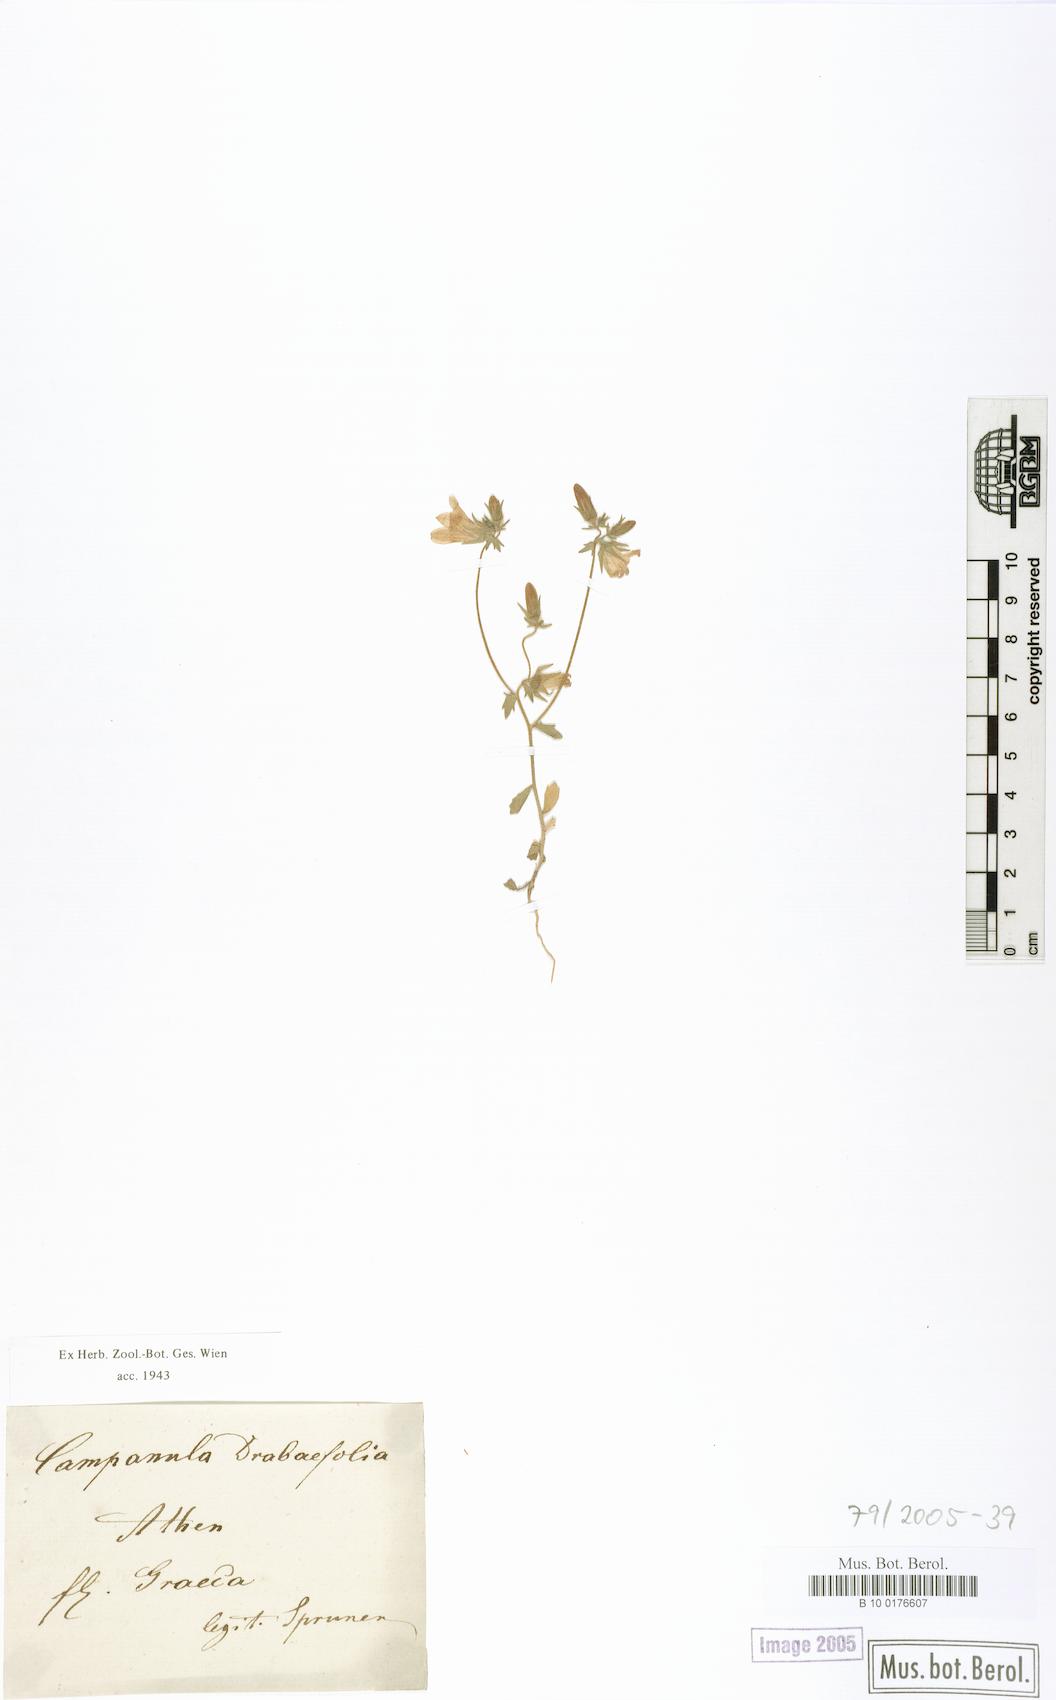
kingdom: Plantae
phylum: Tracheophyta
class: Magnoliopsida
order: Asterales
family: Campanulaceae
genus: Campanula
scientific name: Campanula drabifolia
